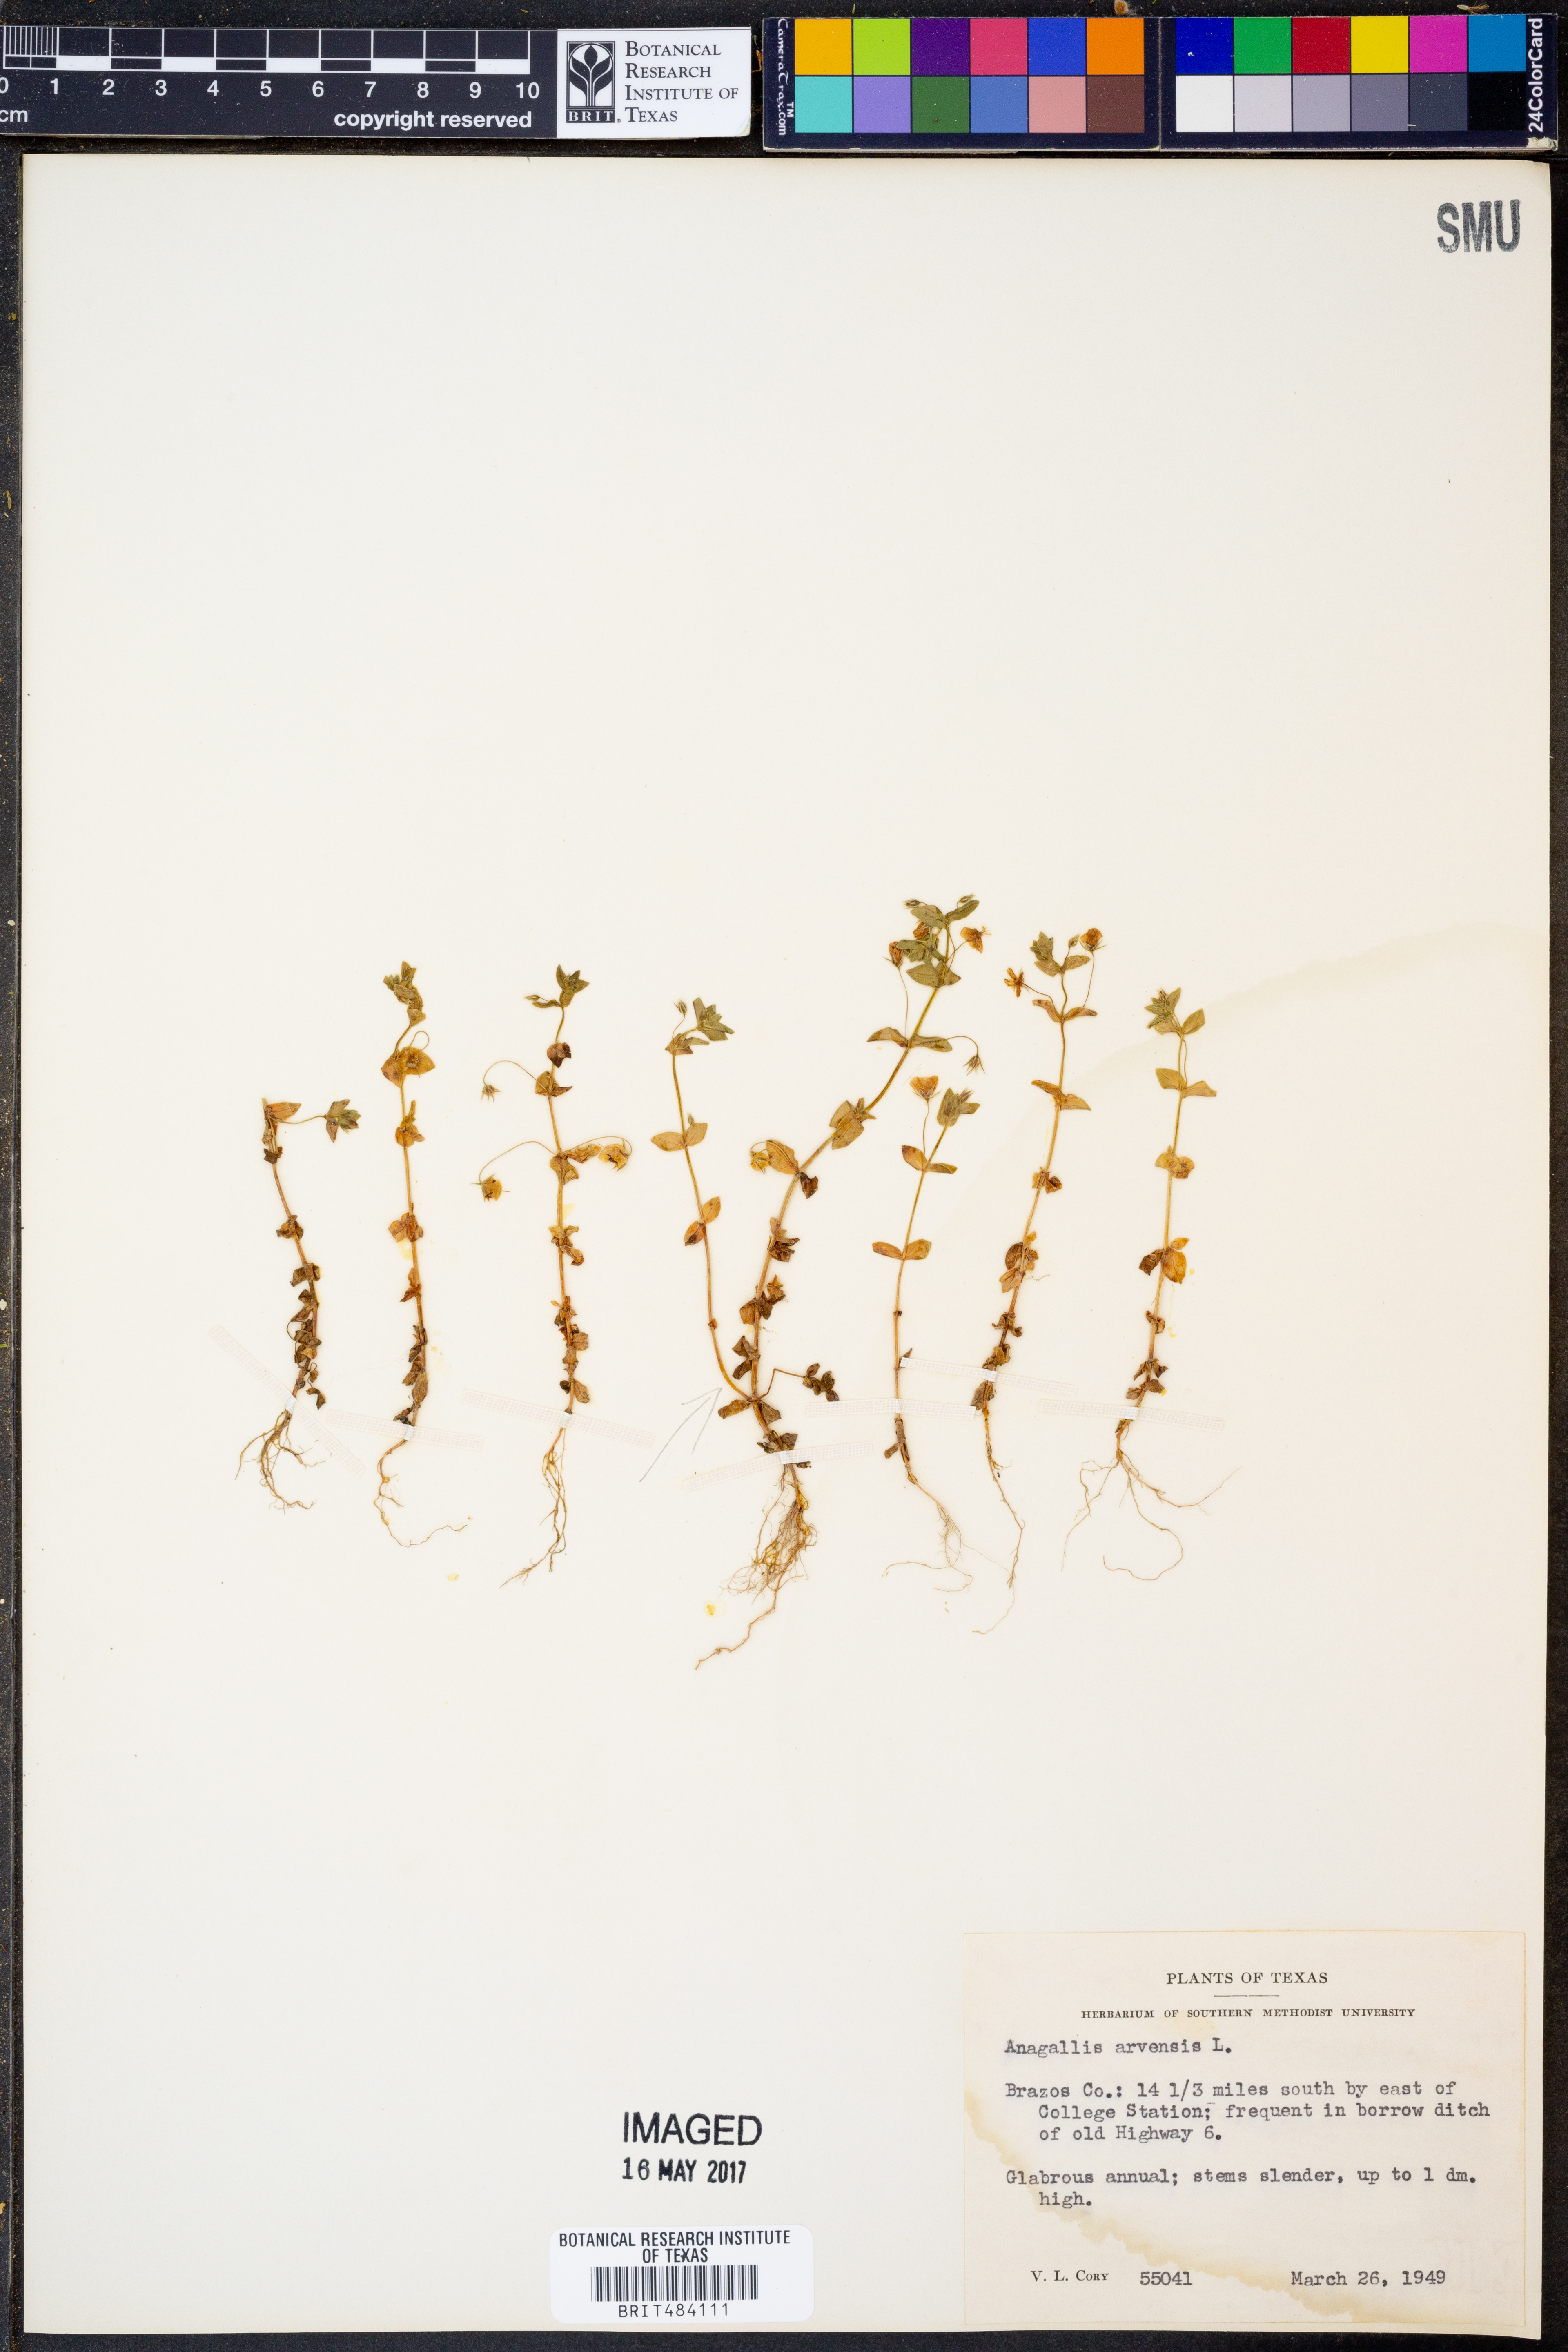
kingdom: Plantae
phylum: Tracheophyta
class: Magnoliopsida
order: Ericales
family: Primulaceae
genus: Lysimachia
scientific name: Lysimachia arvensis
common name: Scarlet pimpernel
